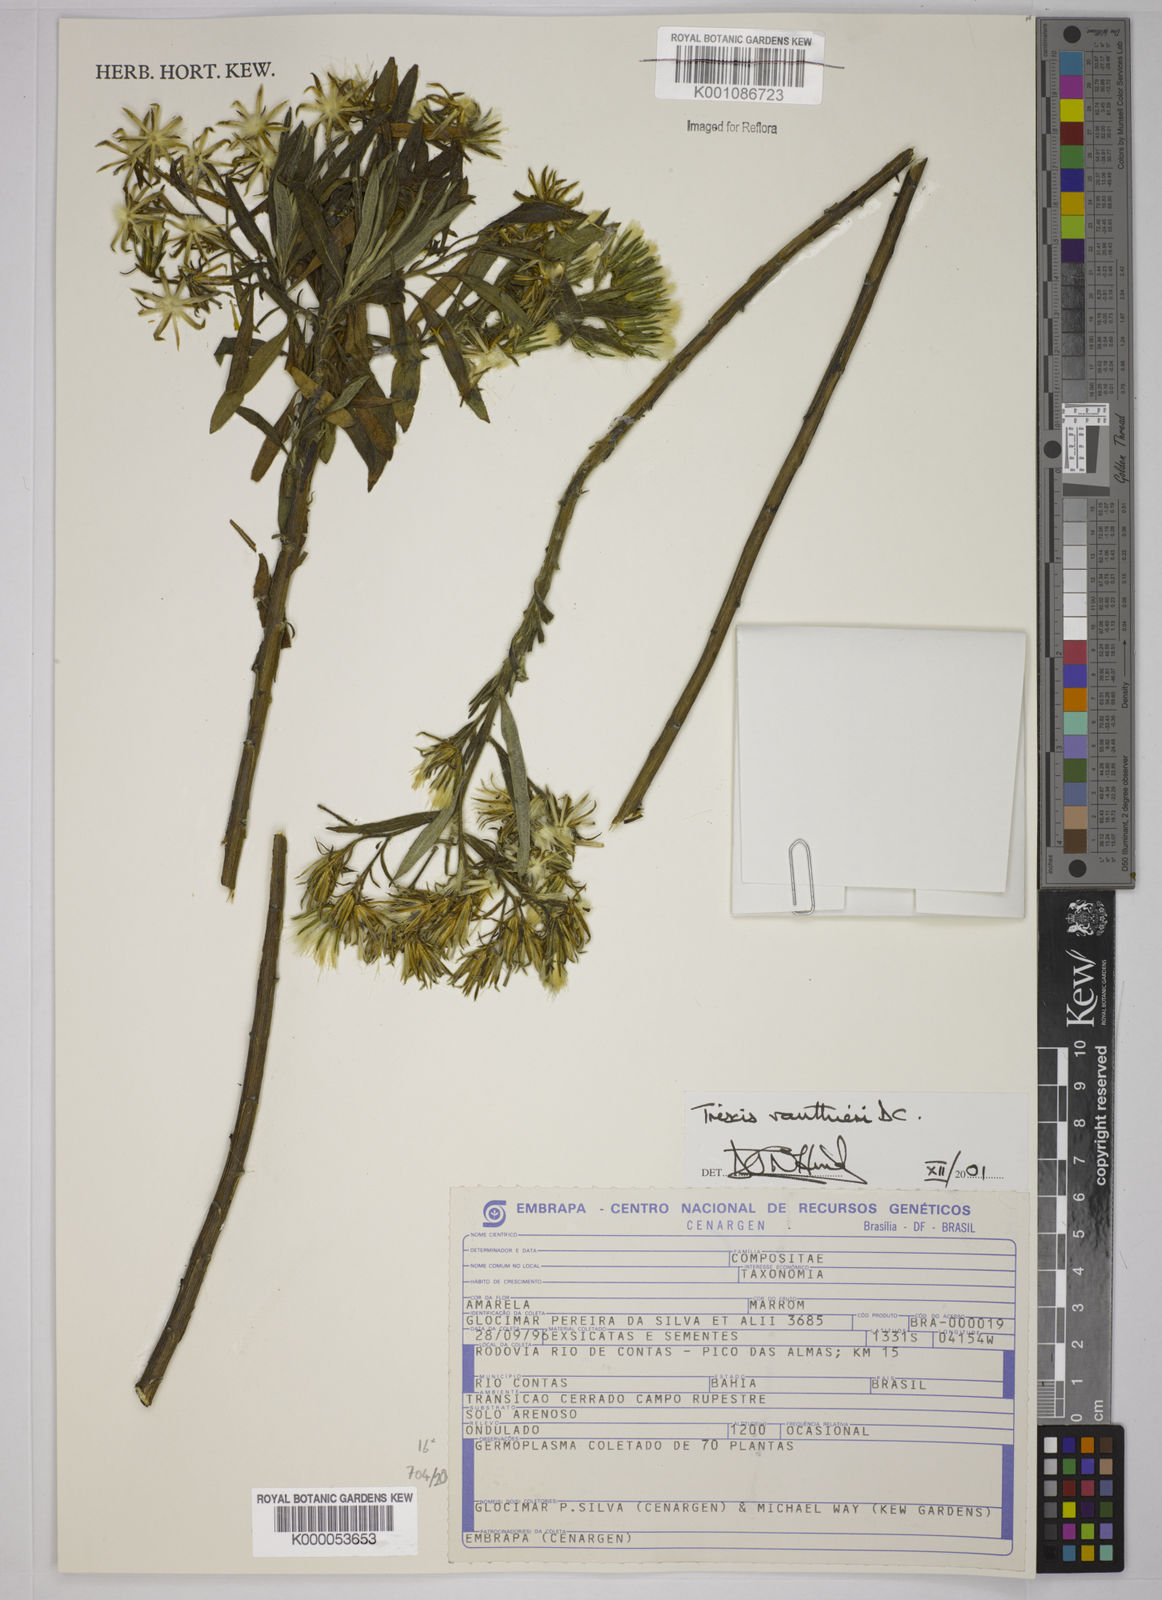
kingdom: Plantae
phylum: Tracheophyta
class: Magnoliopsida
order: Asterales
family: Asteraceae
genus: Trixis
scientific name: Trixis vauthieri
